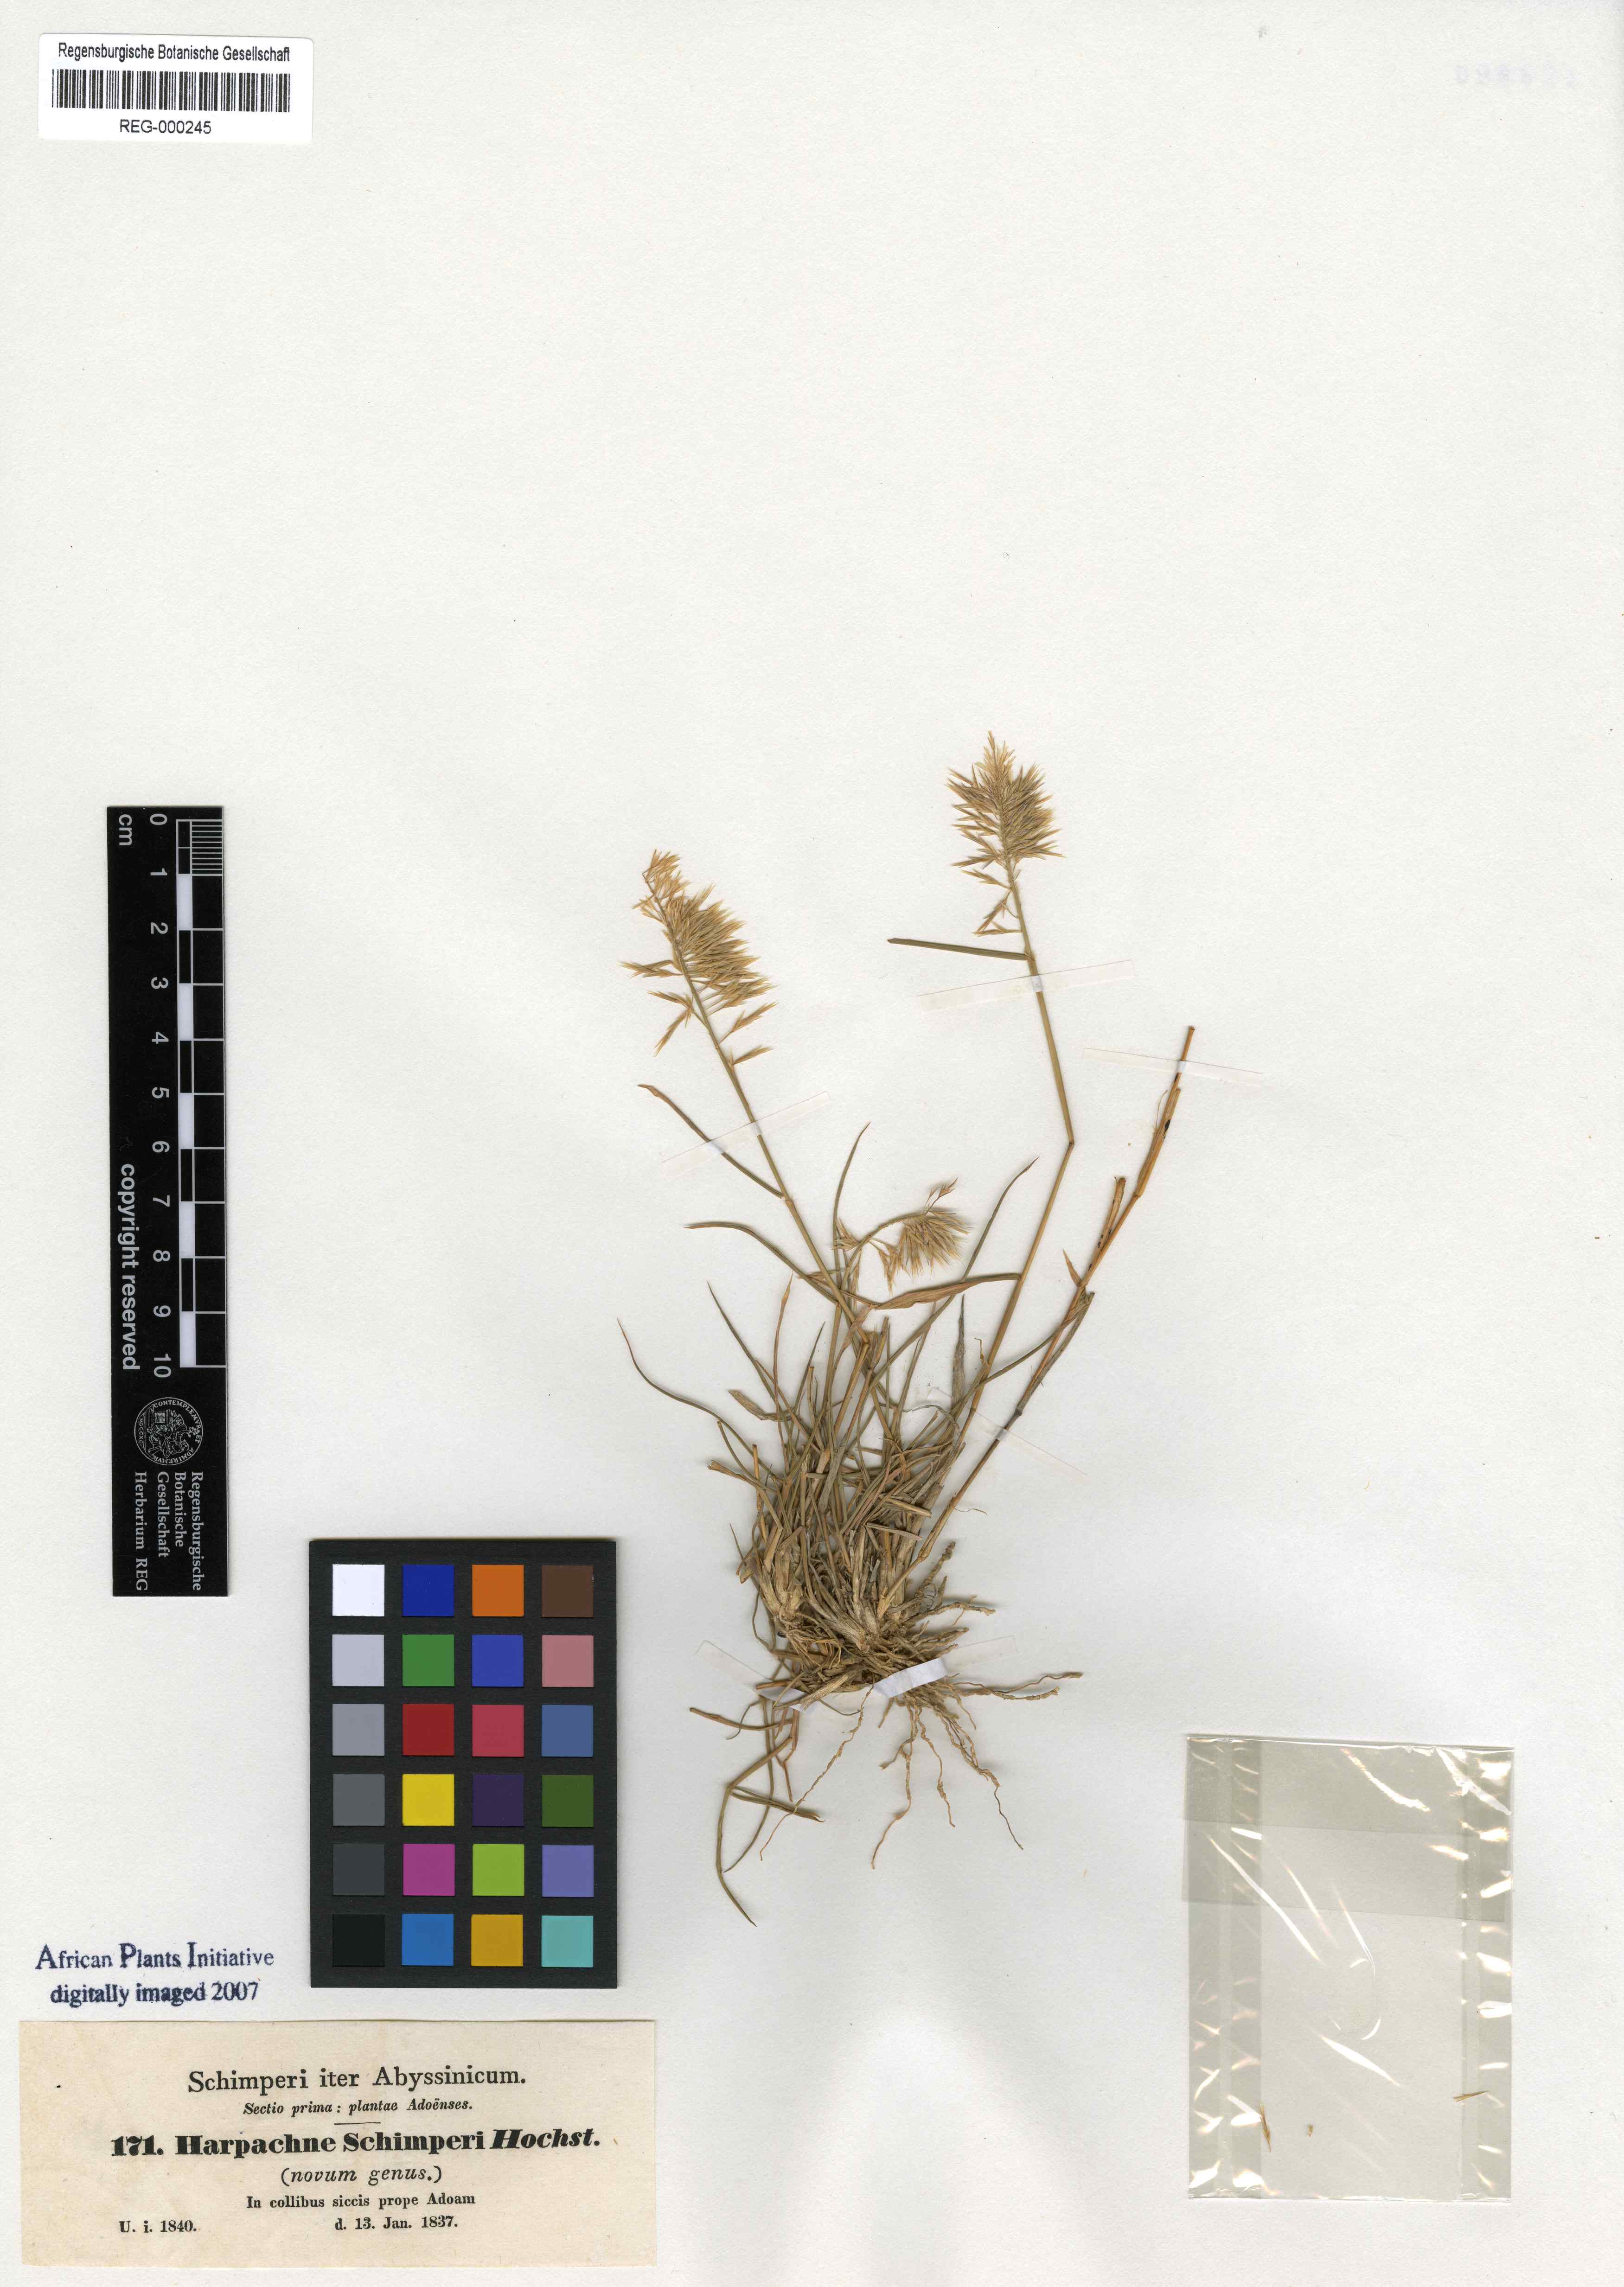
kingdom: Plantae
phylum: Tracheophyta
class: Liliopsida
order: Poales
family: Poaceae
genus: Harpachne
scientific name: Harpachne schimperi
